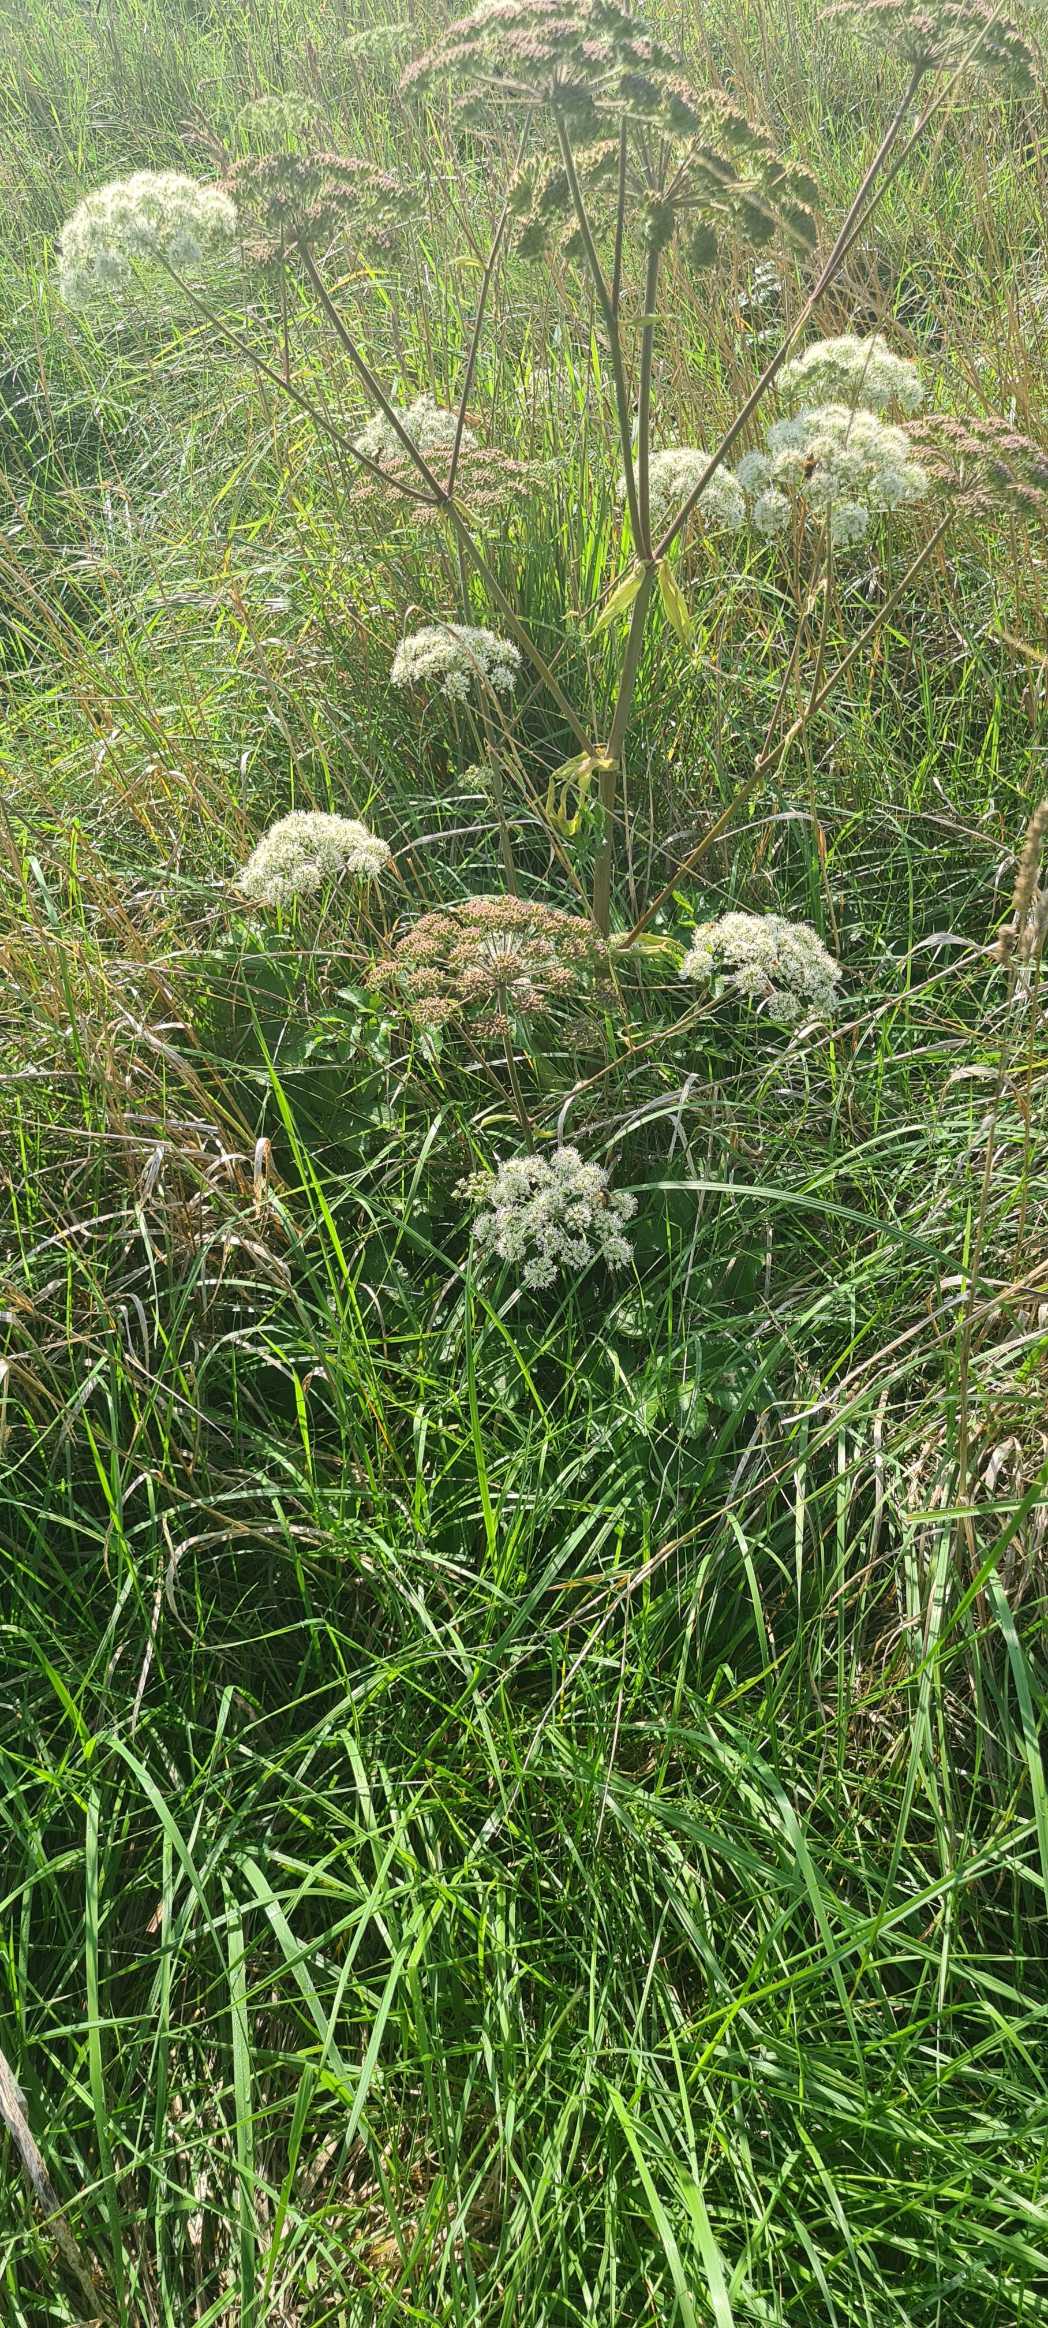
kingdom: Plantae
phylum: Tracheophyta
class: Magnoliopsida
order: Apiales
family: Apiaceae
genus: Angelica
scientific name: Angelica sylvestris
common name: Angelik
